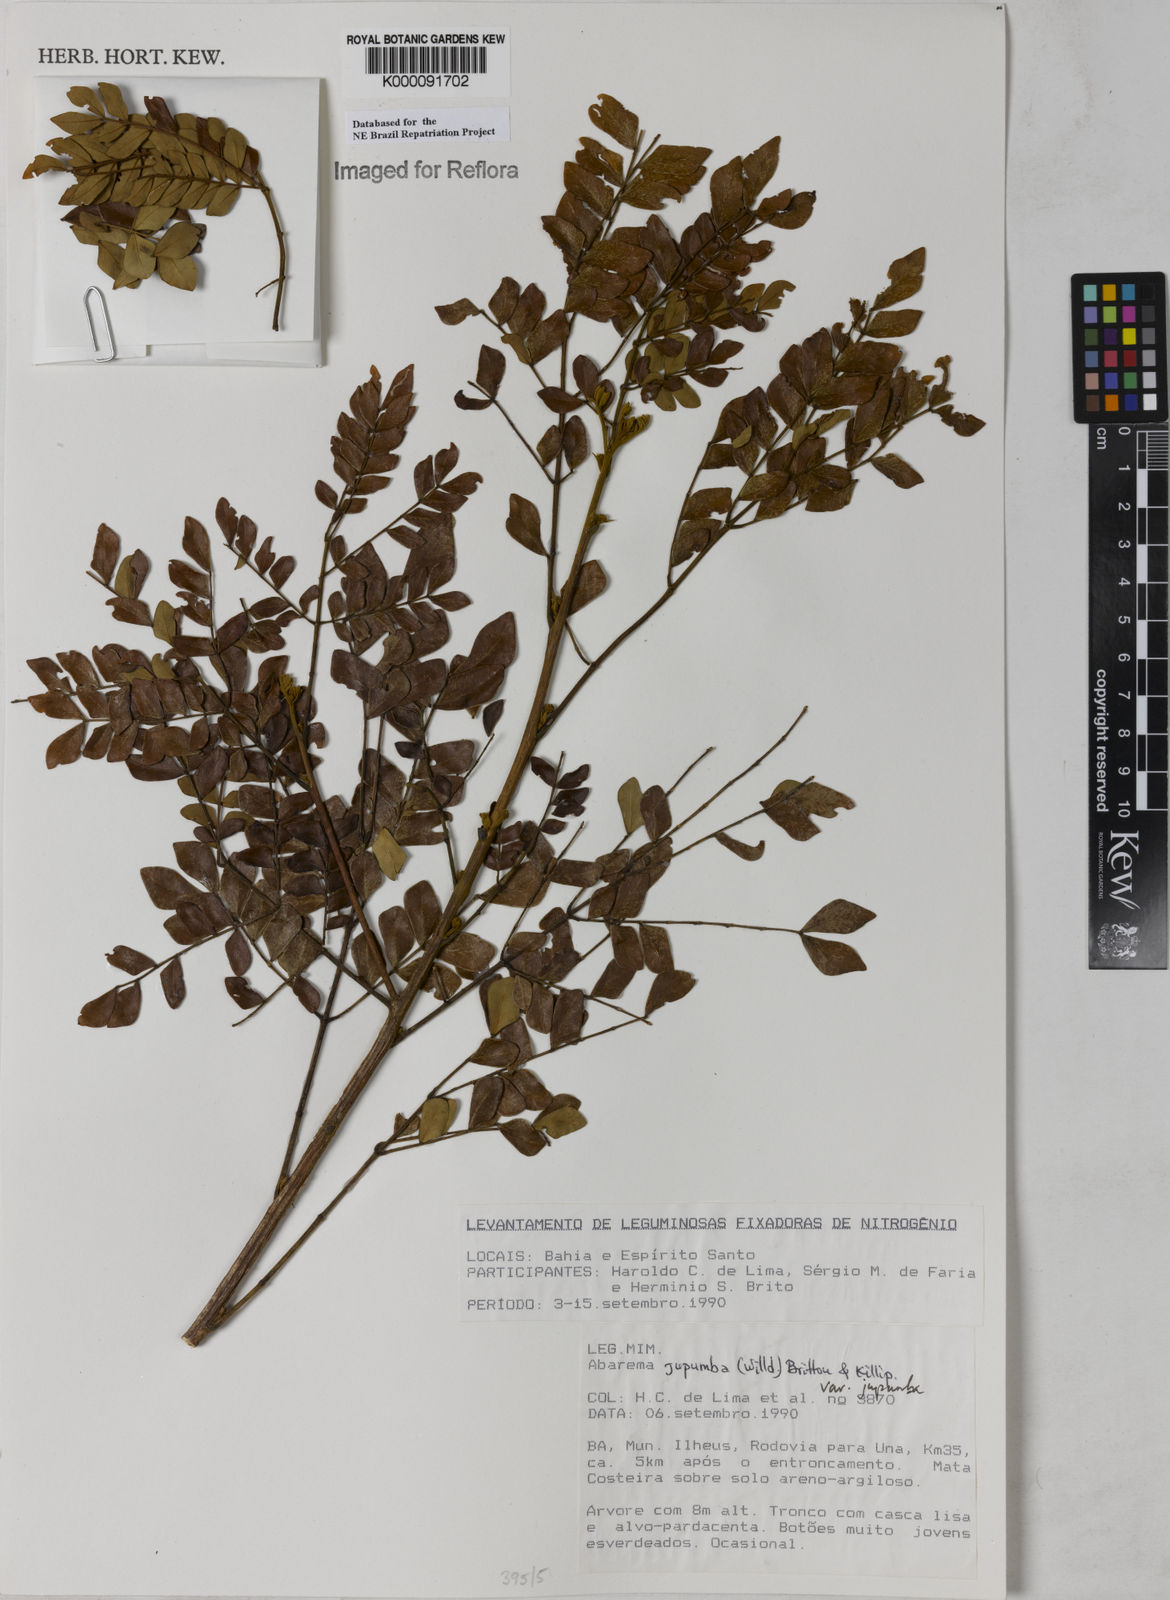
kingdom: Plantae
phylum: Tracheophyta
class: Magnoliopsida
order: Fabales
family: Fabaceae
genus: Jupunba
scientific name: Jupunba trapezifolia
